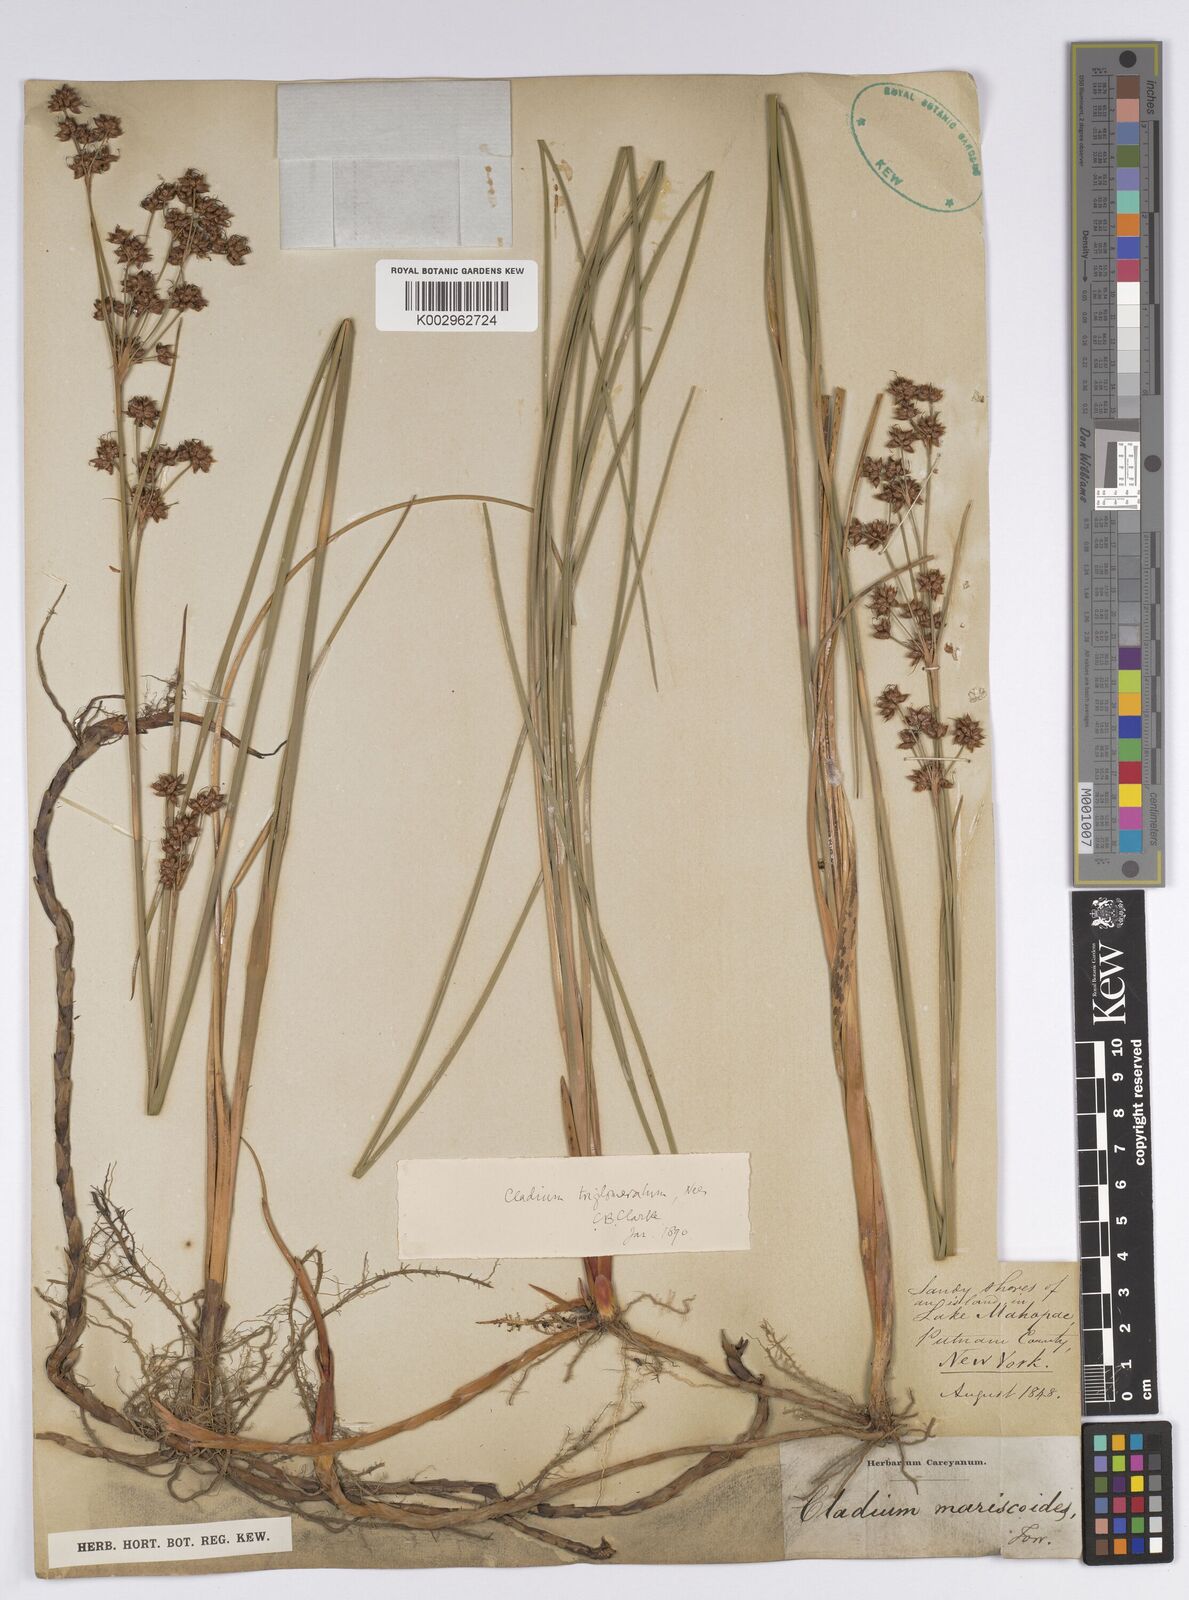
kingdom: Plantae
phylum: Tracheophyta
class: Liliopsida
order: Poales
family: Cyperaceae
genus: Cladium
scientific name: Cladium mariscoides
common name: Smooth sawgrass
